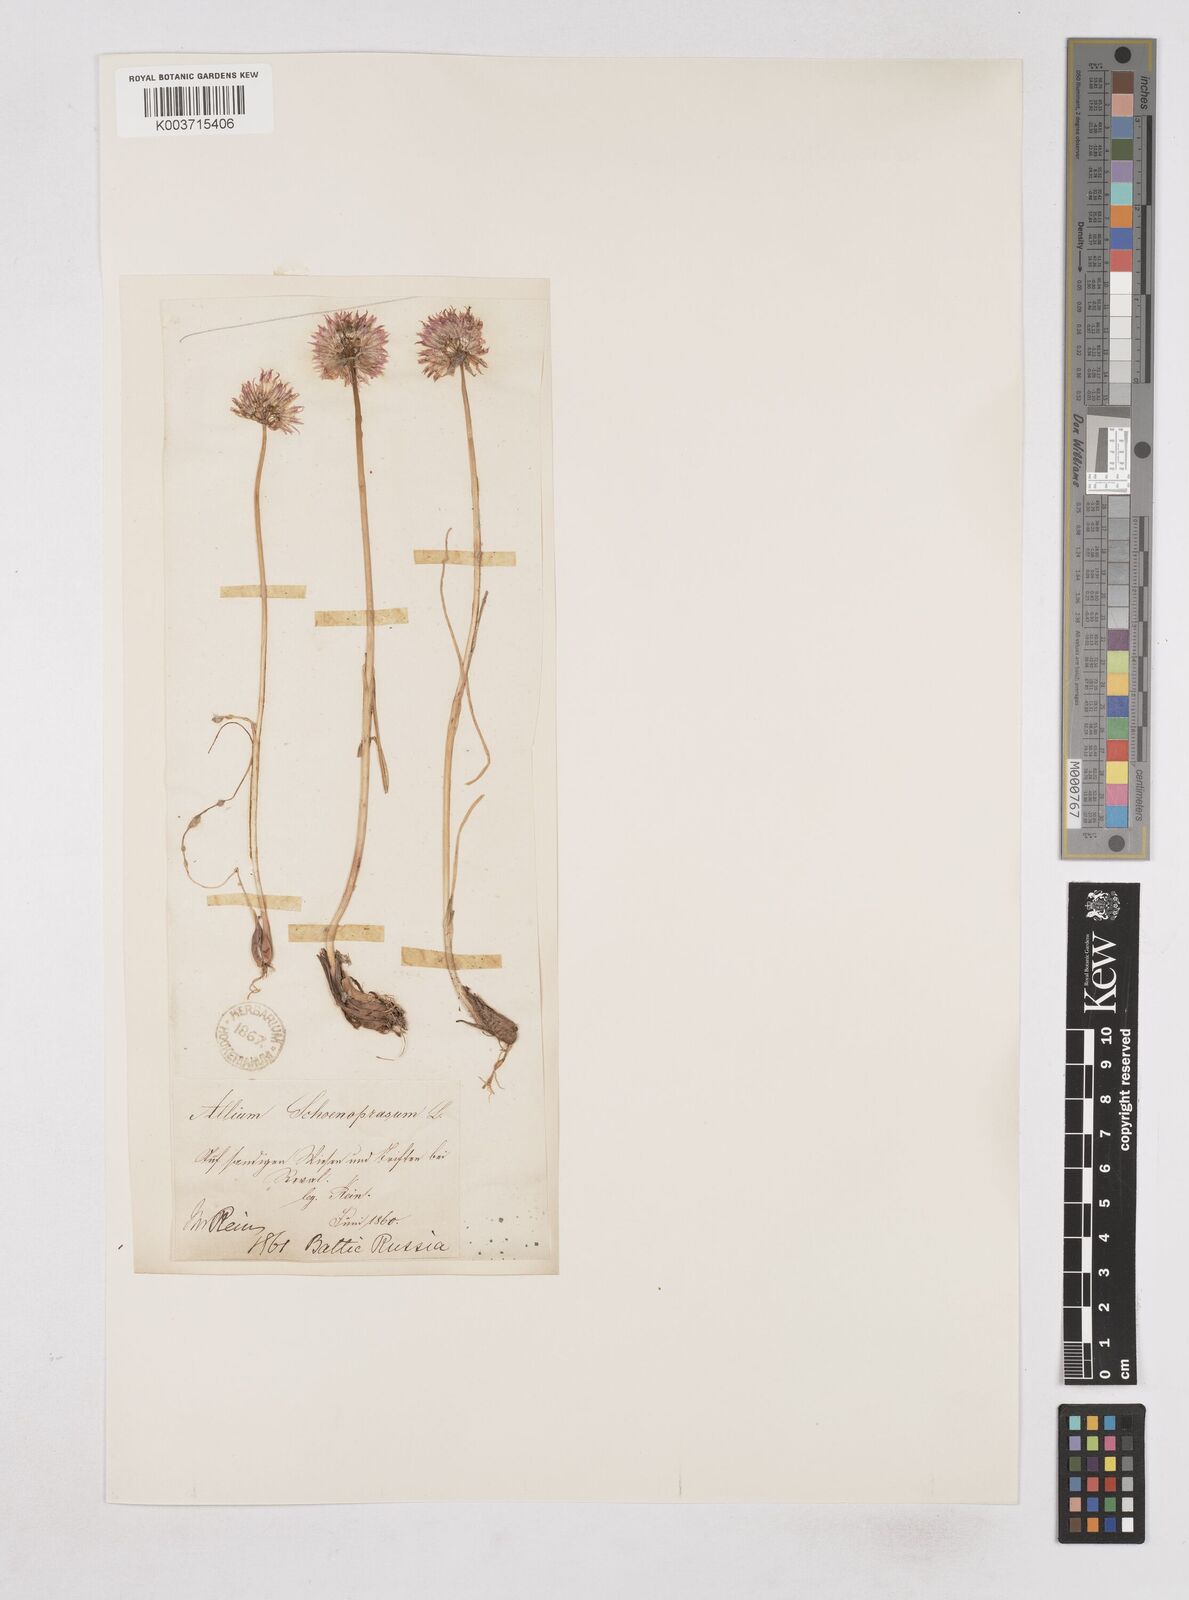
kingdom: Plantae
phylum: Tracheophyta
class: Liliopsida
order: Asparagales
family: Amaryllidaceae
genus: Allium
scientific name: Allium schoenoprasum
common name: Chives
